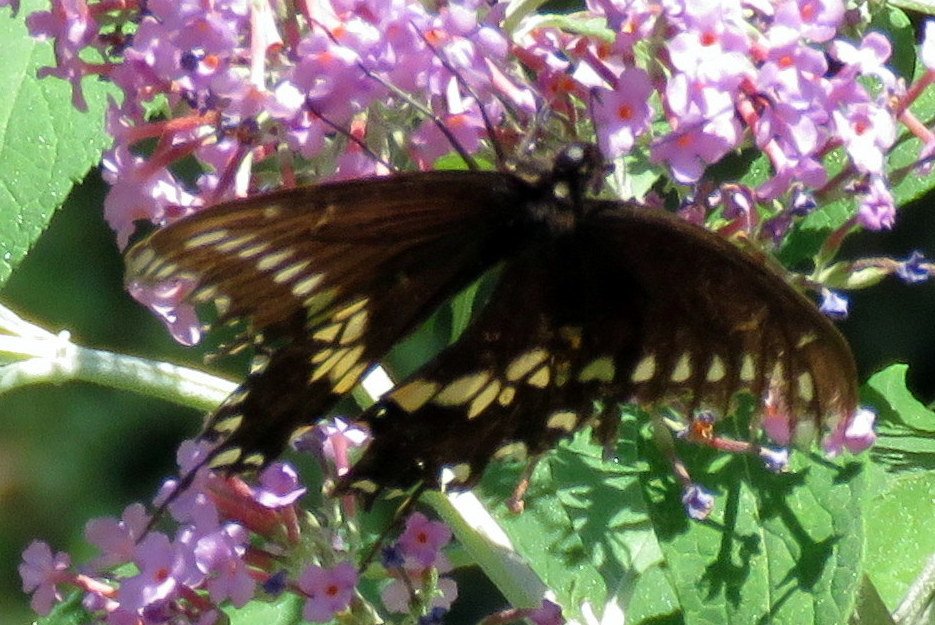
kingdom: Animalia
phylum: Arthropoda
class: Insecta
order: Lepidoptera
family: Papilionidae
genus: Papilio
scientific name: Papilio polyxenes
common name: Black Swallowtail
